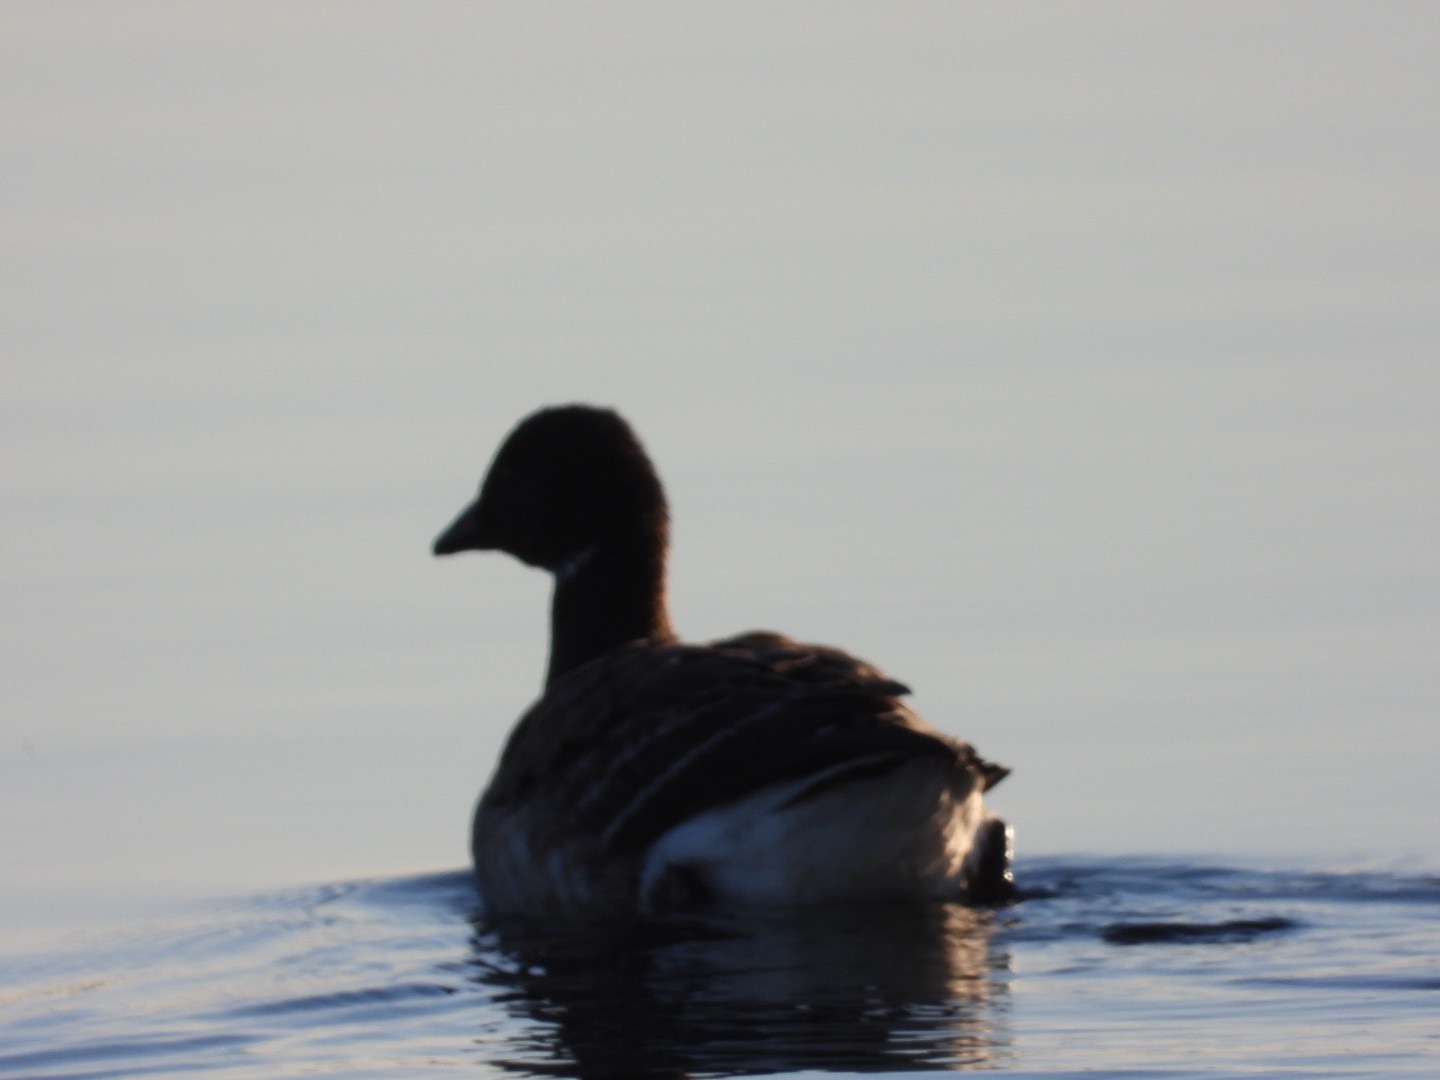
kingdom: Animalia
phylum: Chordata
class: Aves
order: Anseriformes
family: Anatidae
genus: Branta
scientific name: Branta bernicla
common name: Lysbuget knortegås
